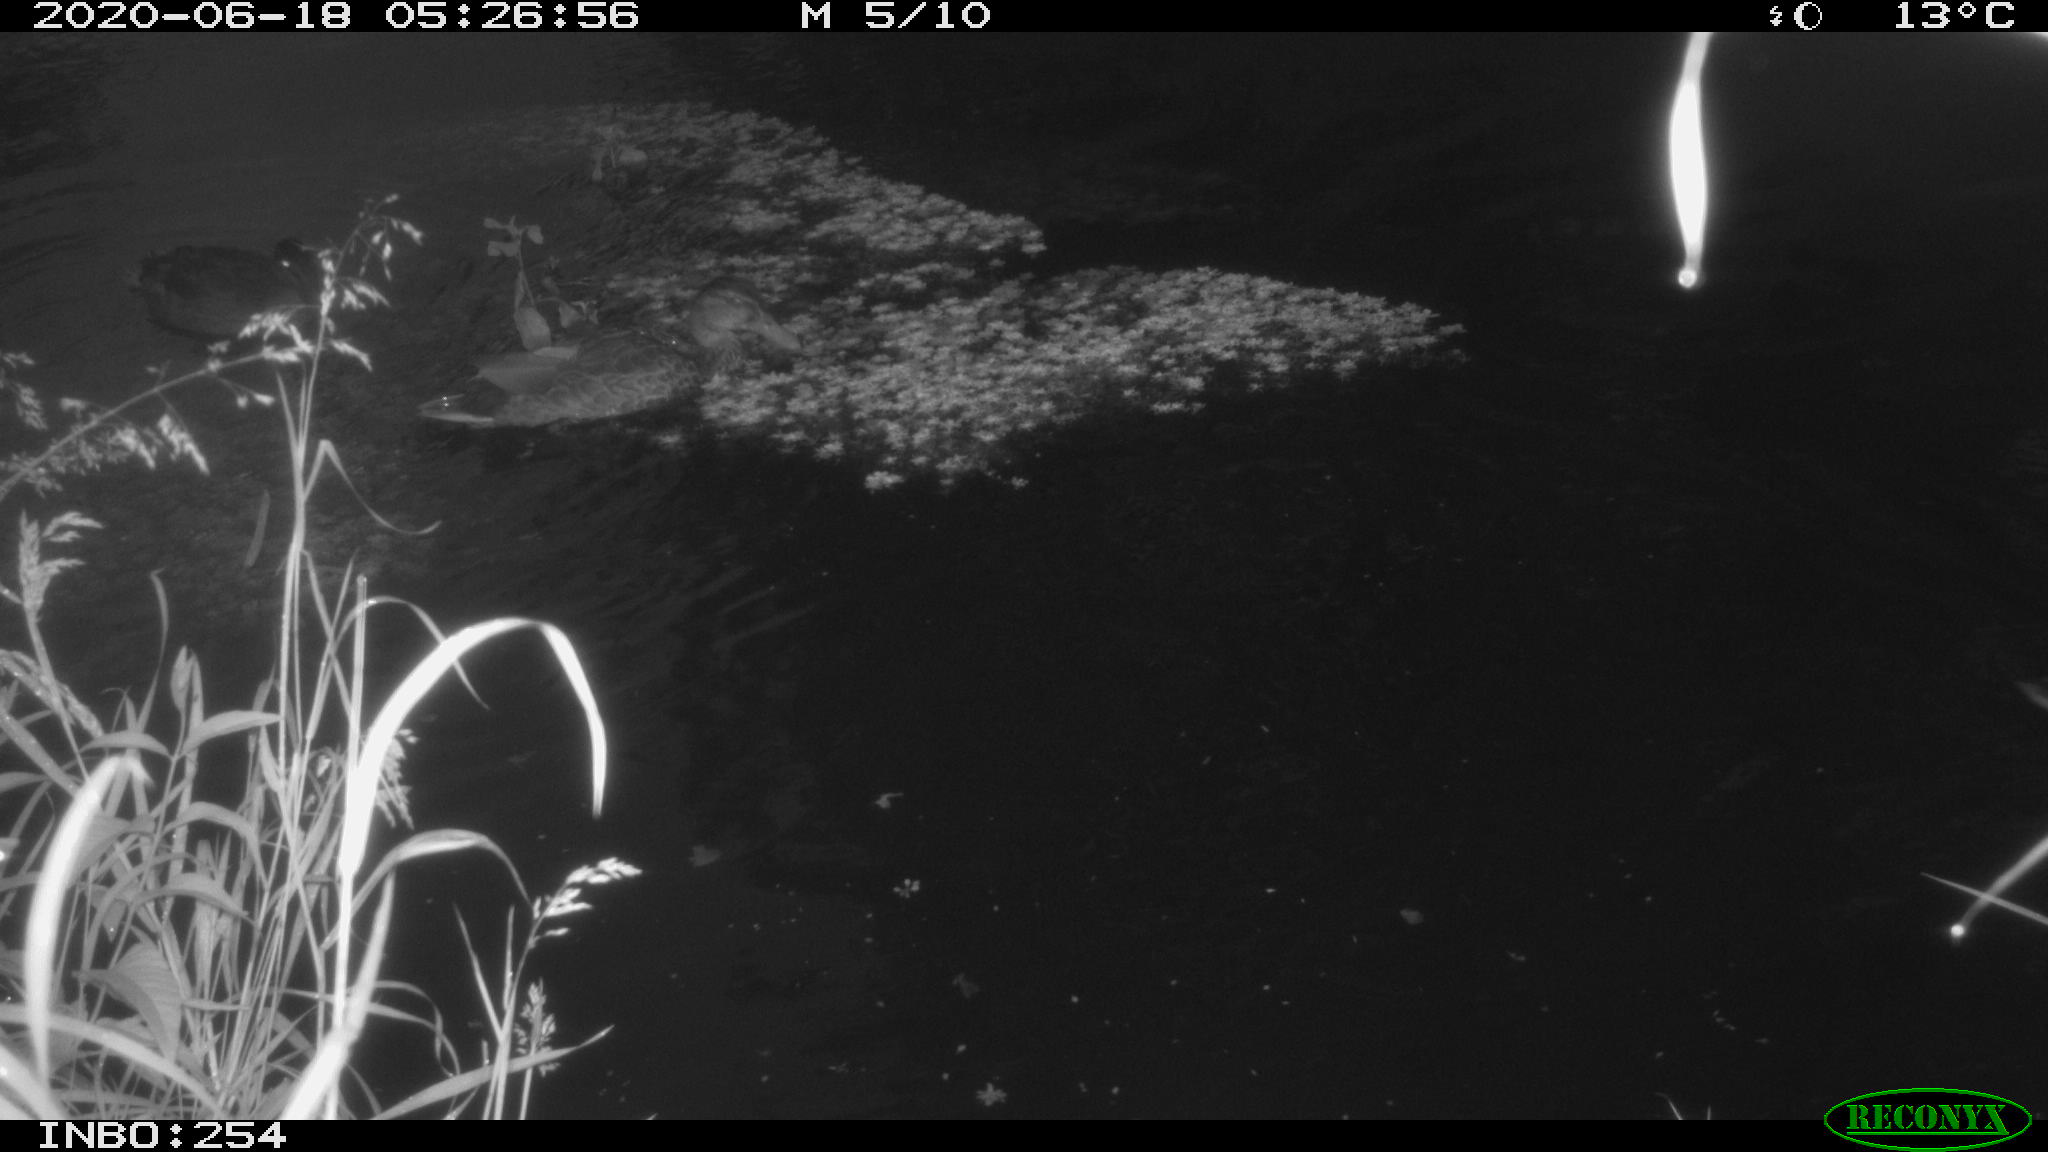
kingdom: Animalia
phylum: Chordata
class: Aves
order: Anseriformes
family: Anatidae
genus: Anas
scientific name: Anas platyrhynchos
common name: Mallard
